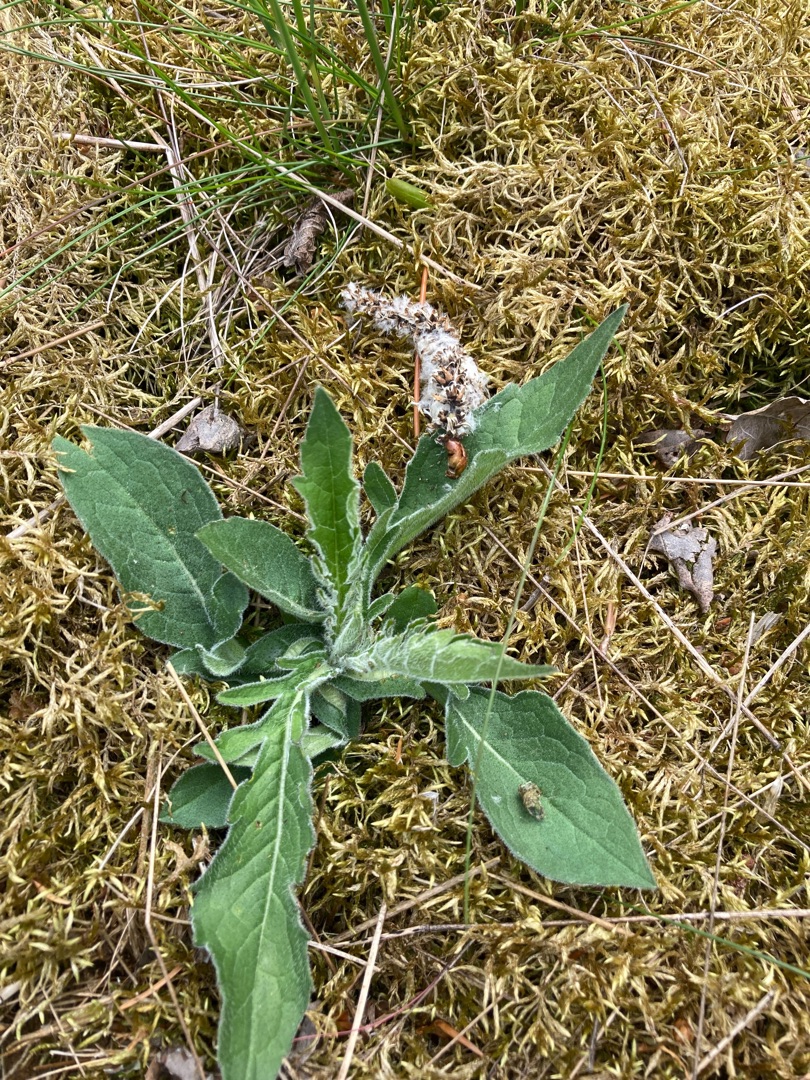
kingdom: Plantae
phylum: Tracheophyta
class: Magnoliopsida
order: Dipsacales
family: Caprifoliaceae
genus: Knautia
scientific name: Knautia arvensis
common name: Blåhat
